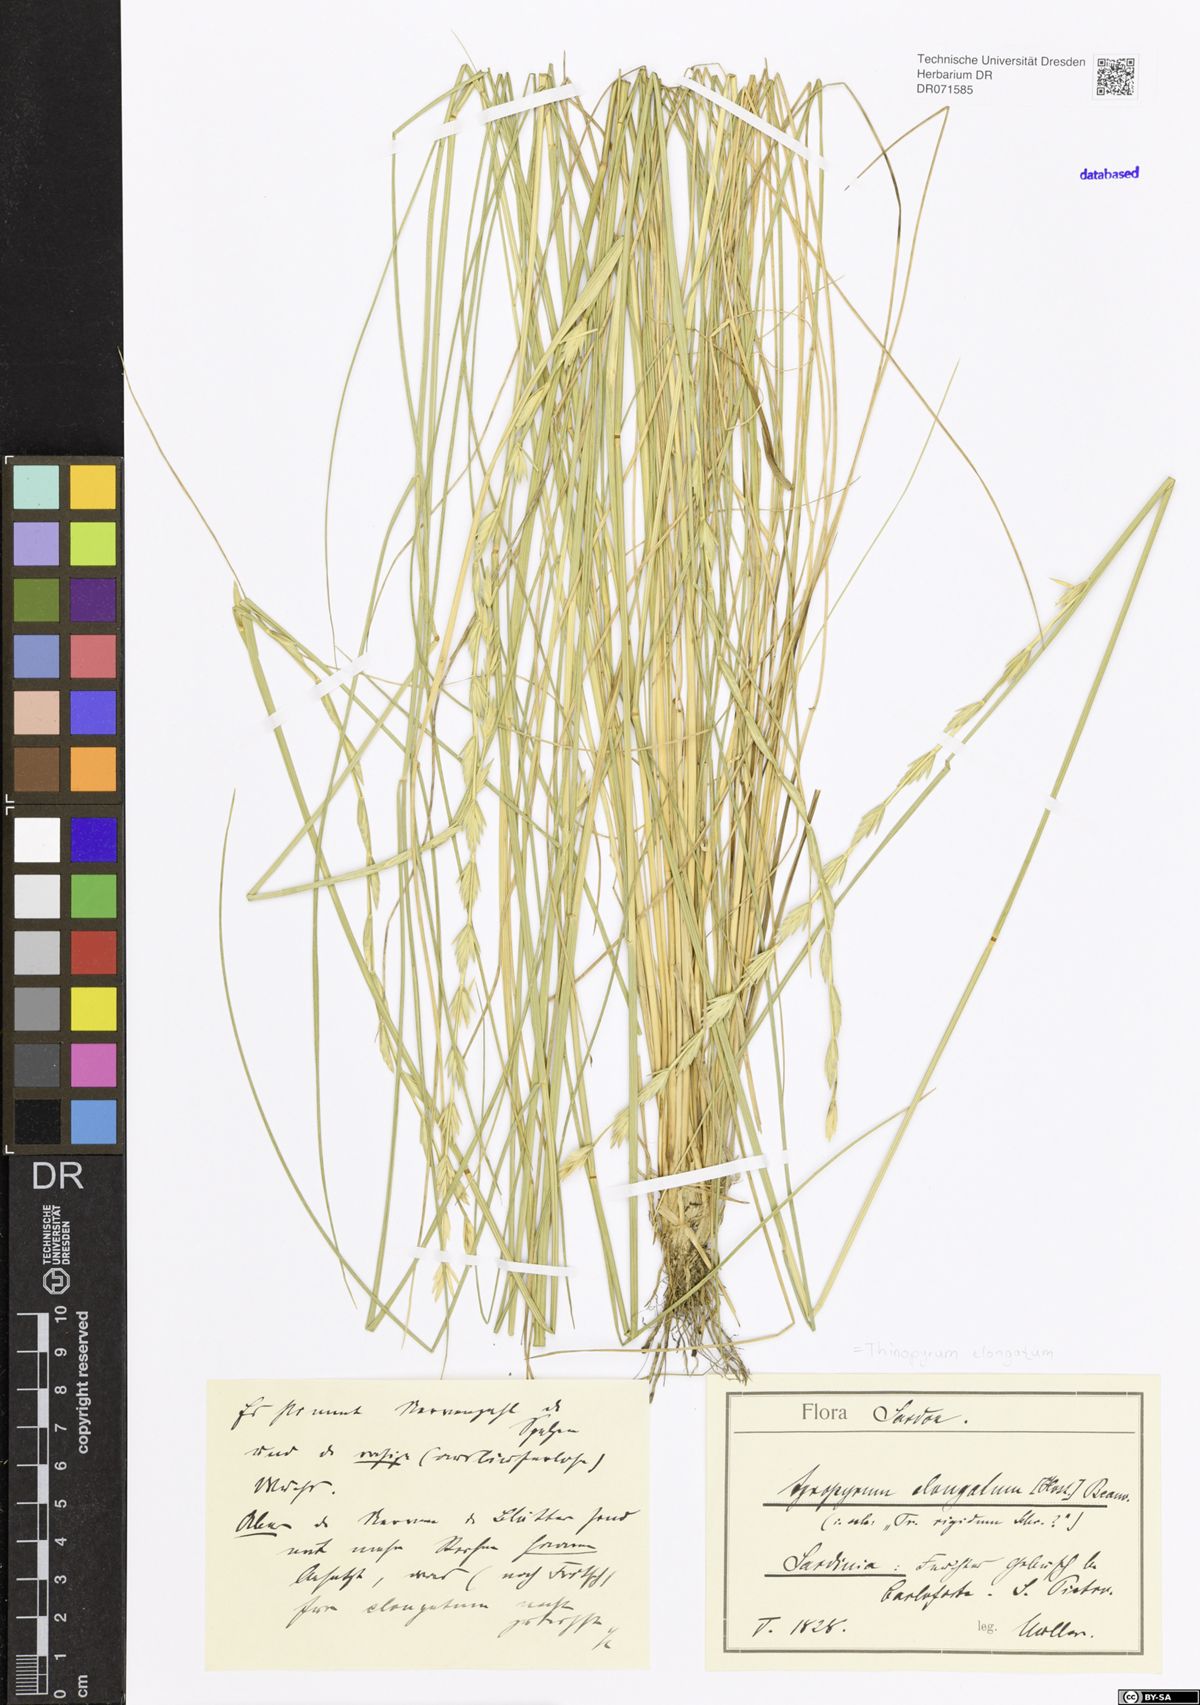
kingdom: Plantae
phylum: Tracheophyta
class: Liliopsida
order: Poales
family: Poaceae
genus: Thinopyrum
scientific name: Thinopyrum elongatum
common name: Tall wheatgrass
